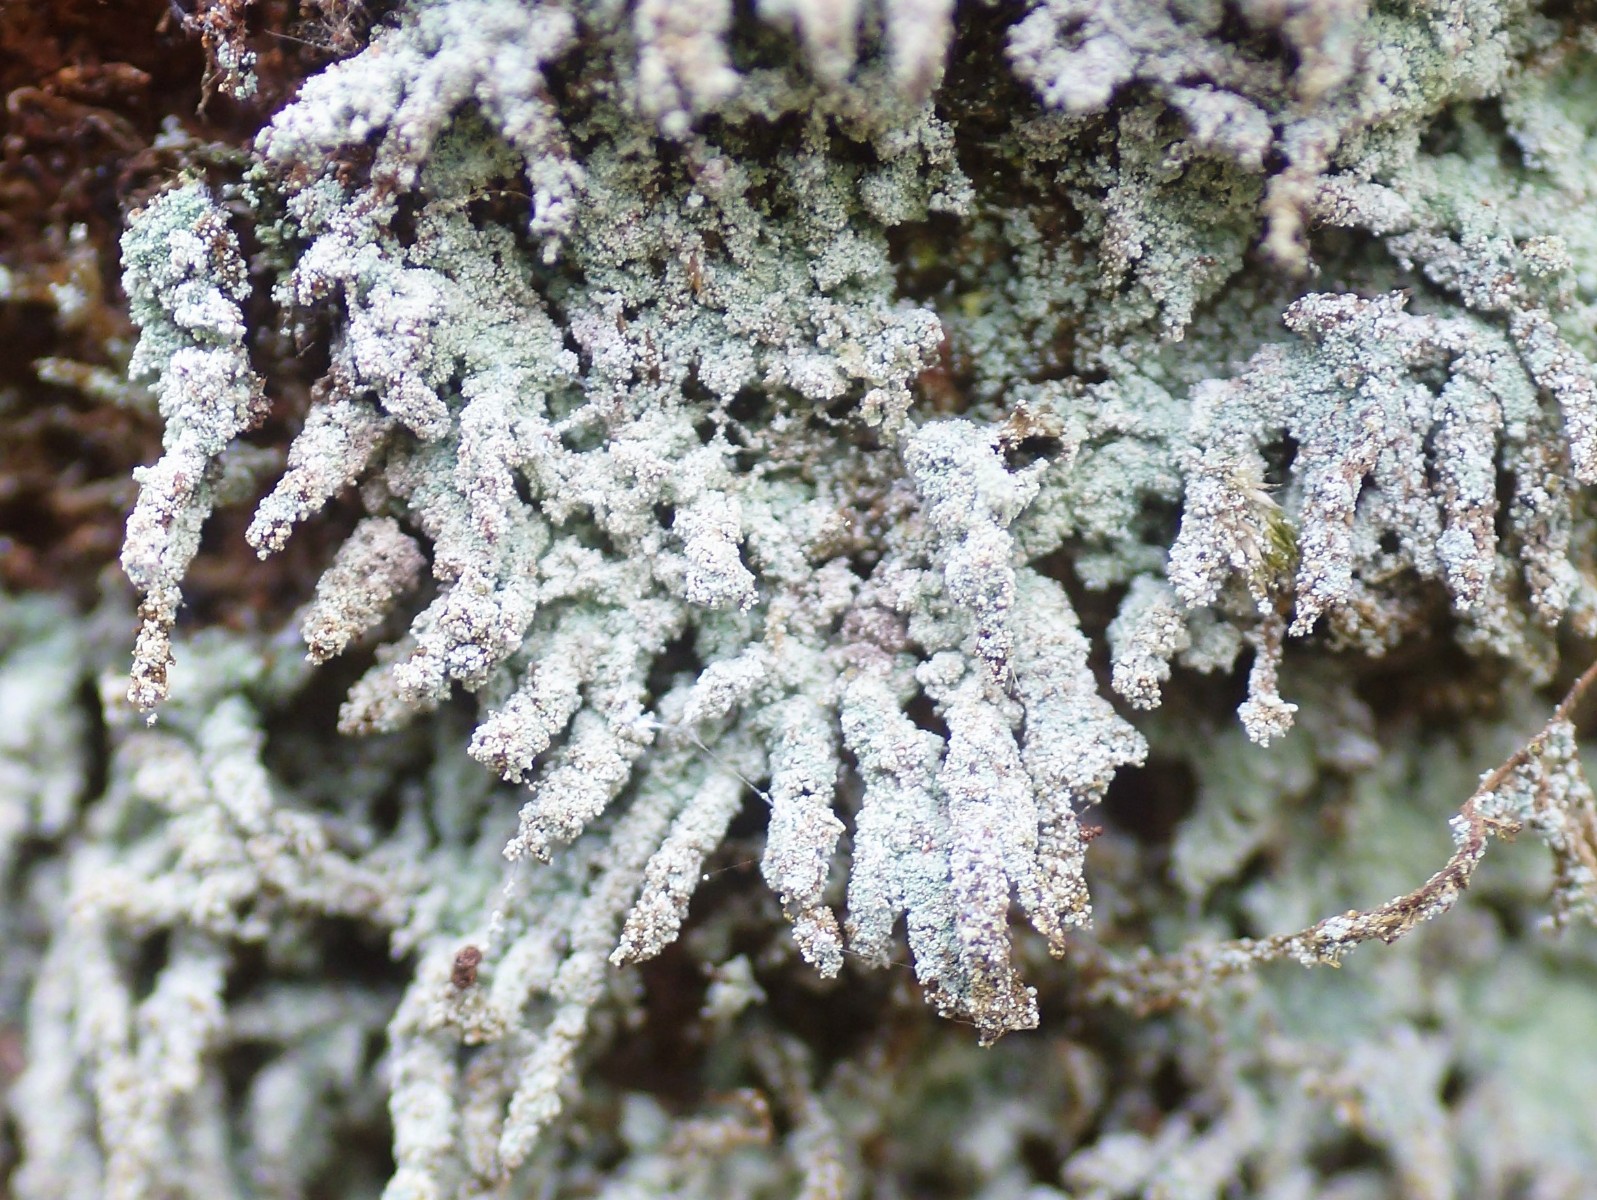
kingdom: Fungi
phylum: Ascomycota
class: Lecanoromycetes
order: Lecanorales
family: Stereocaulaceae
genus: Lepraria
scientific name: Lepraria
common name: støvlav
